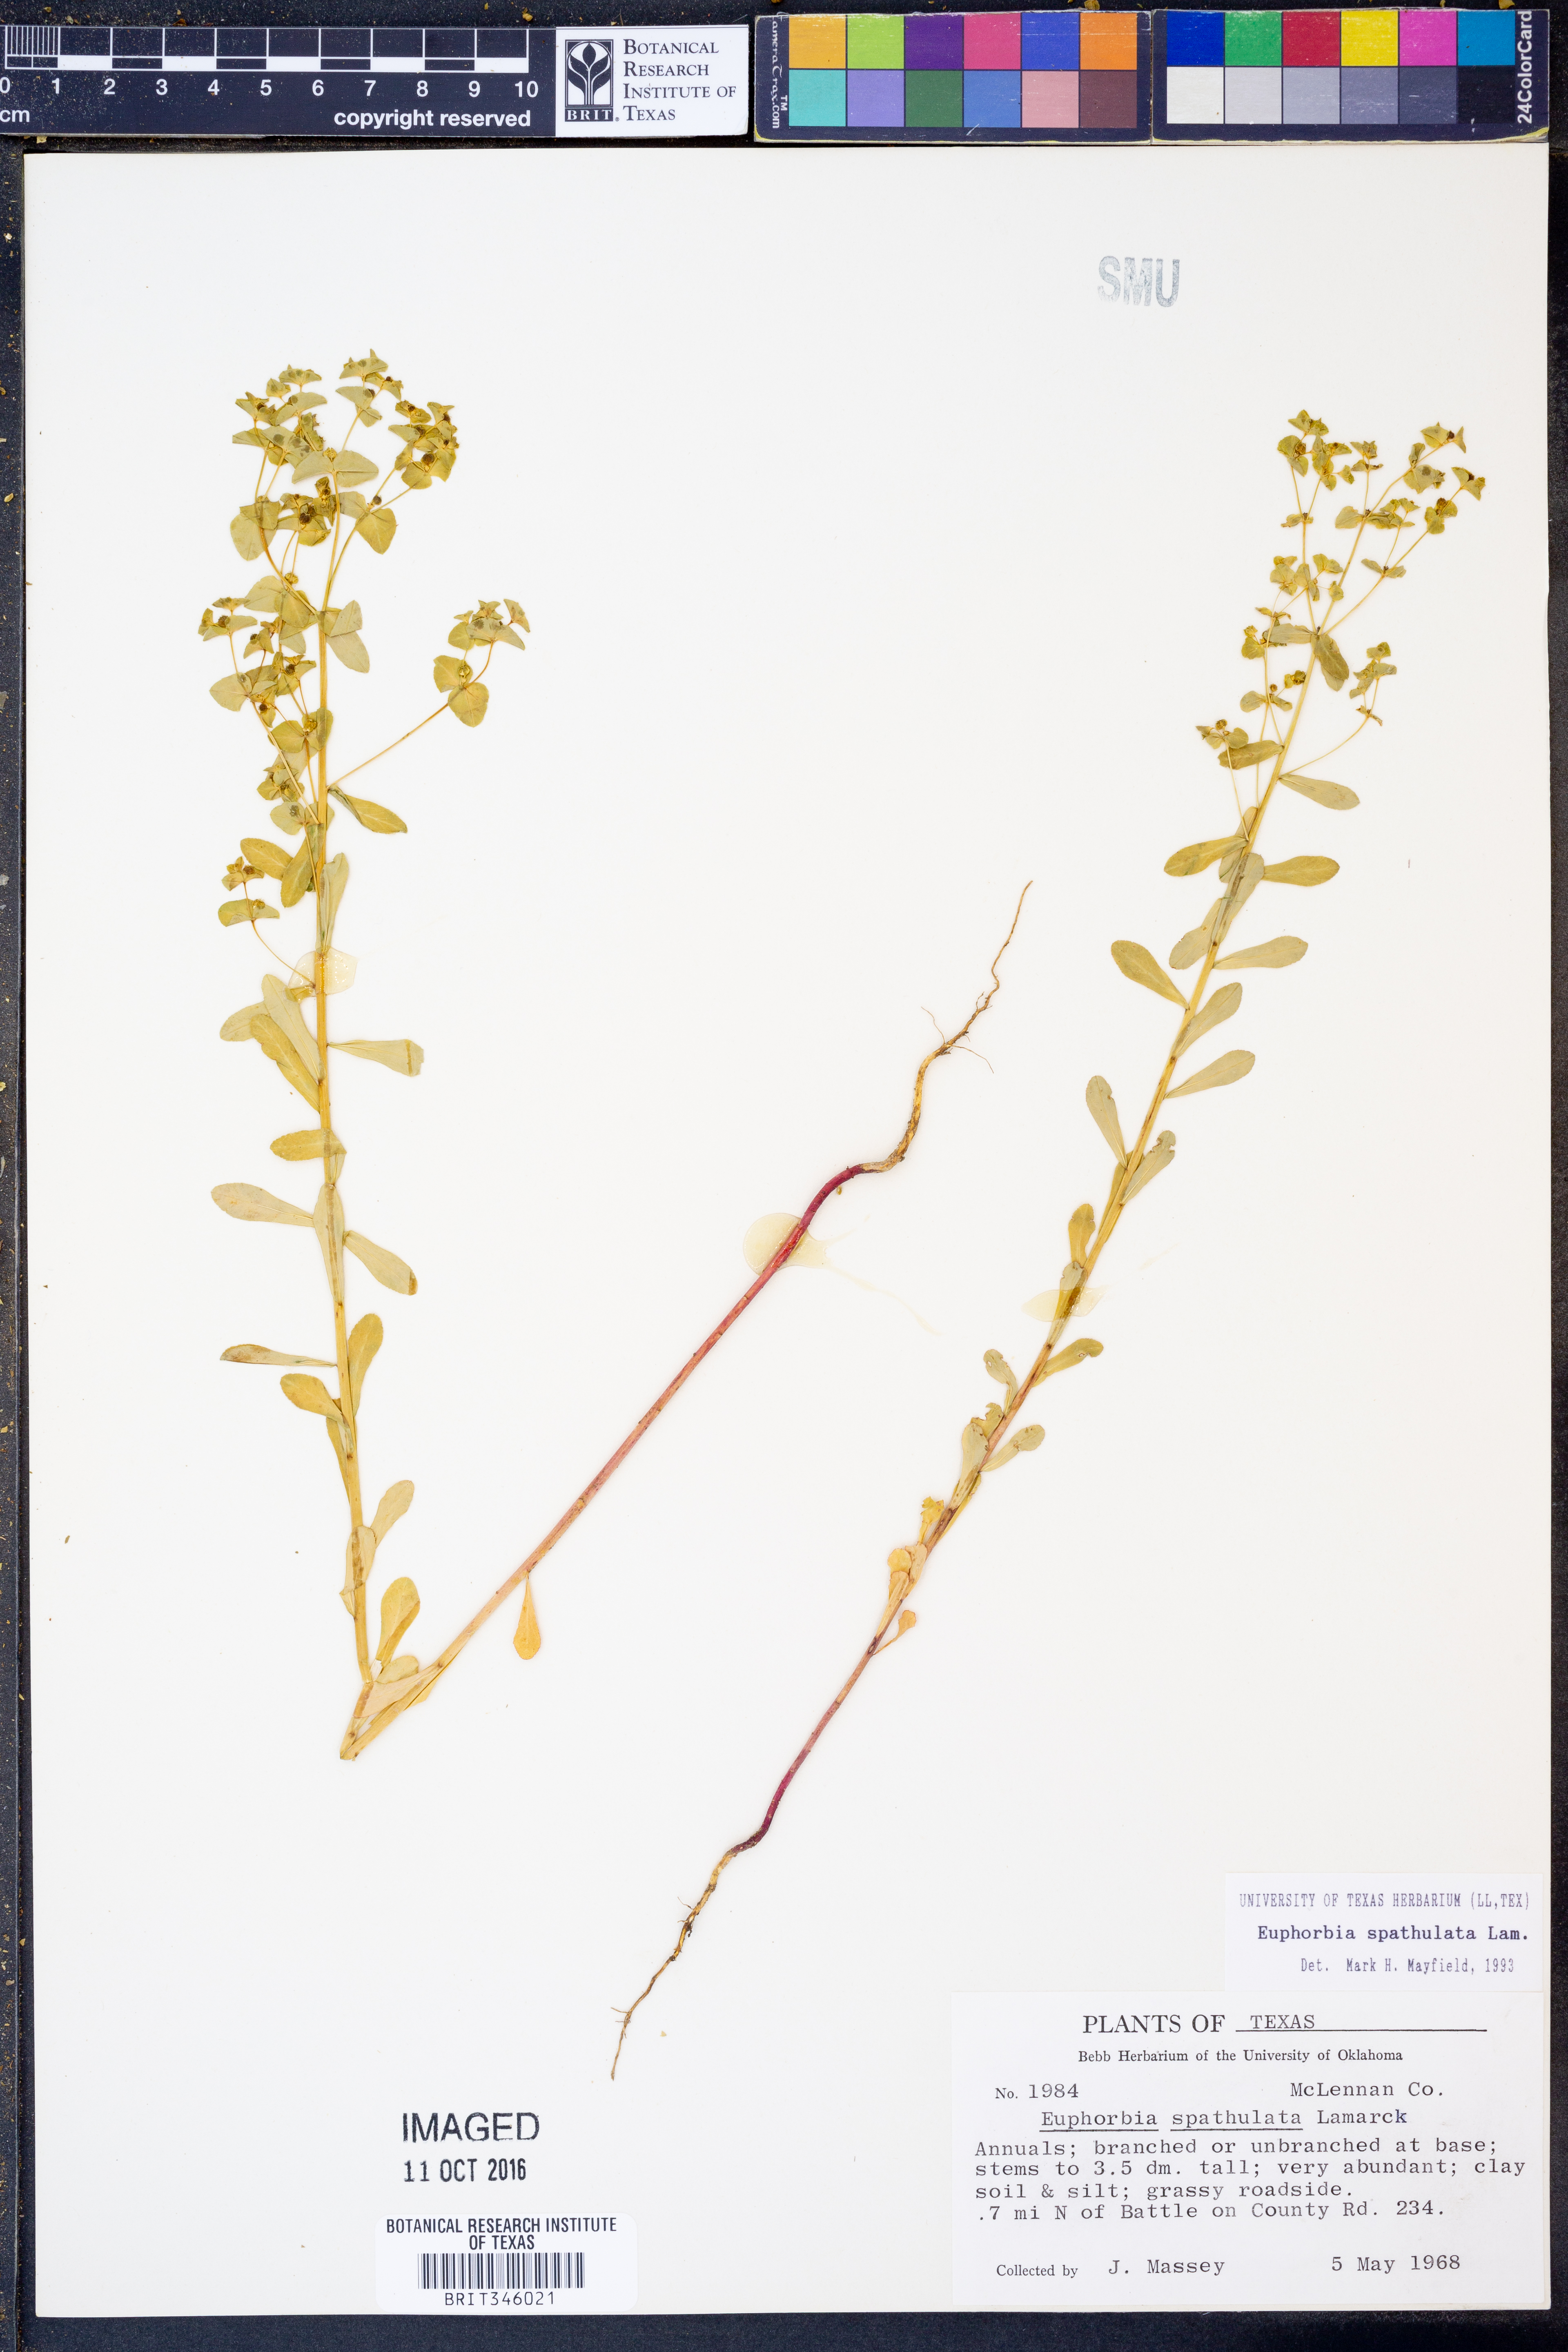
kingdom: Plantae
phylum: Tracheophyta
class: Magnoliopsida
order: Malpighiales
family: Euphorbiaceae
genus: Euphorbia
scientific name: Euphorbia spathulata
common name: Blunt spurge
